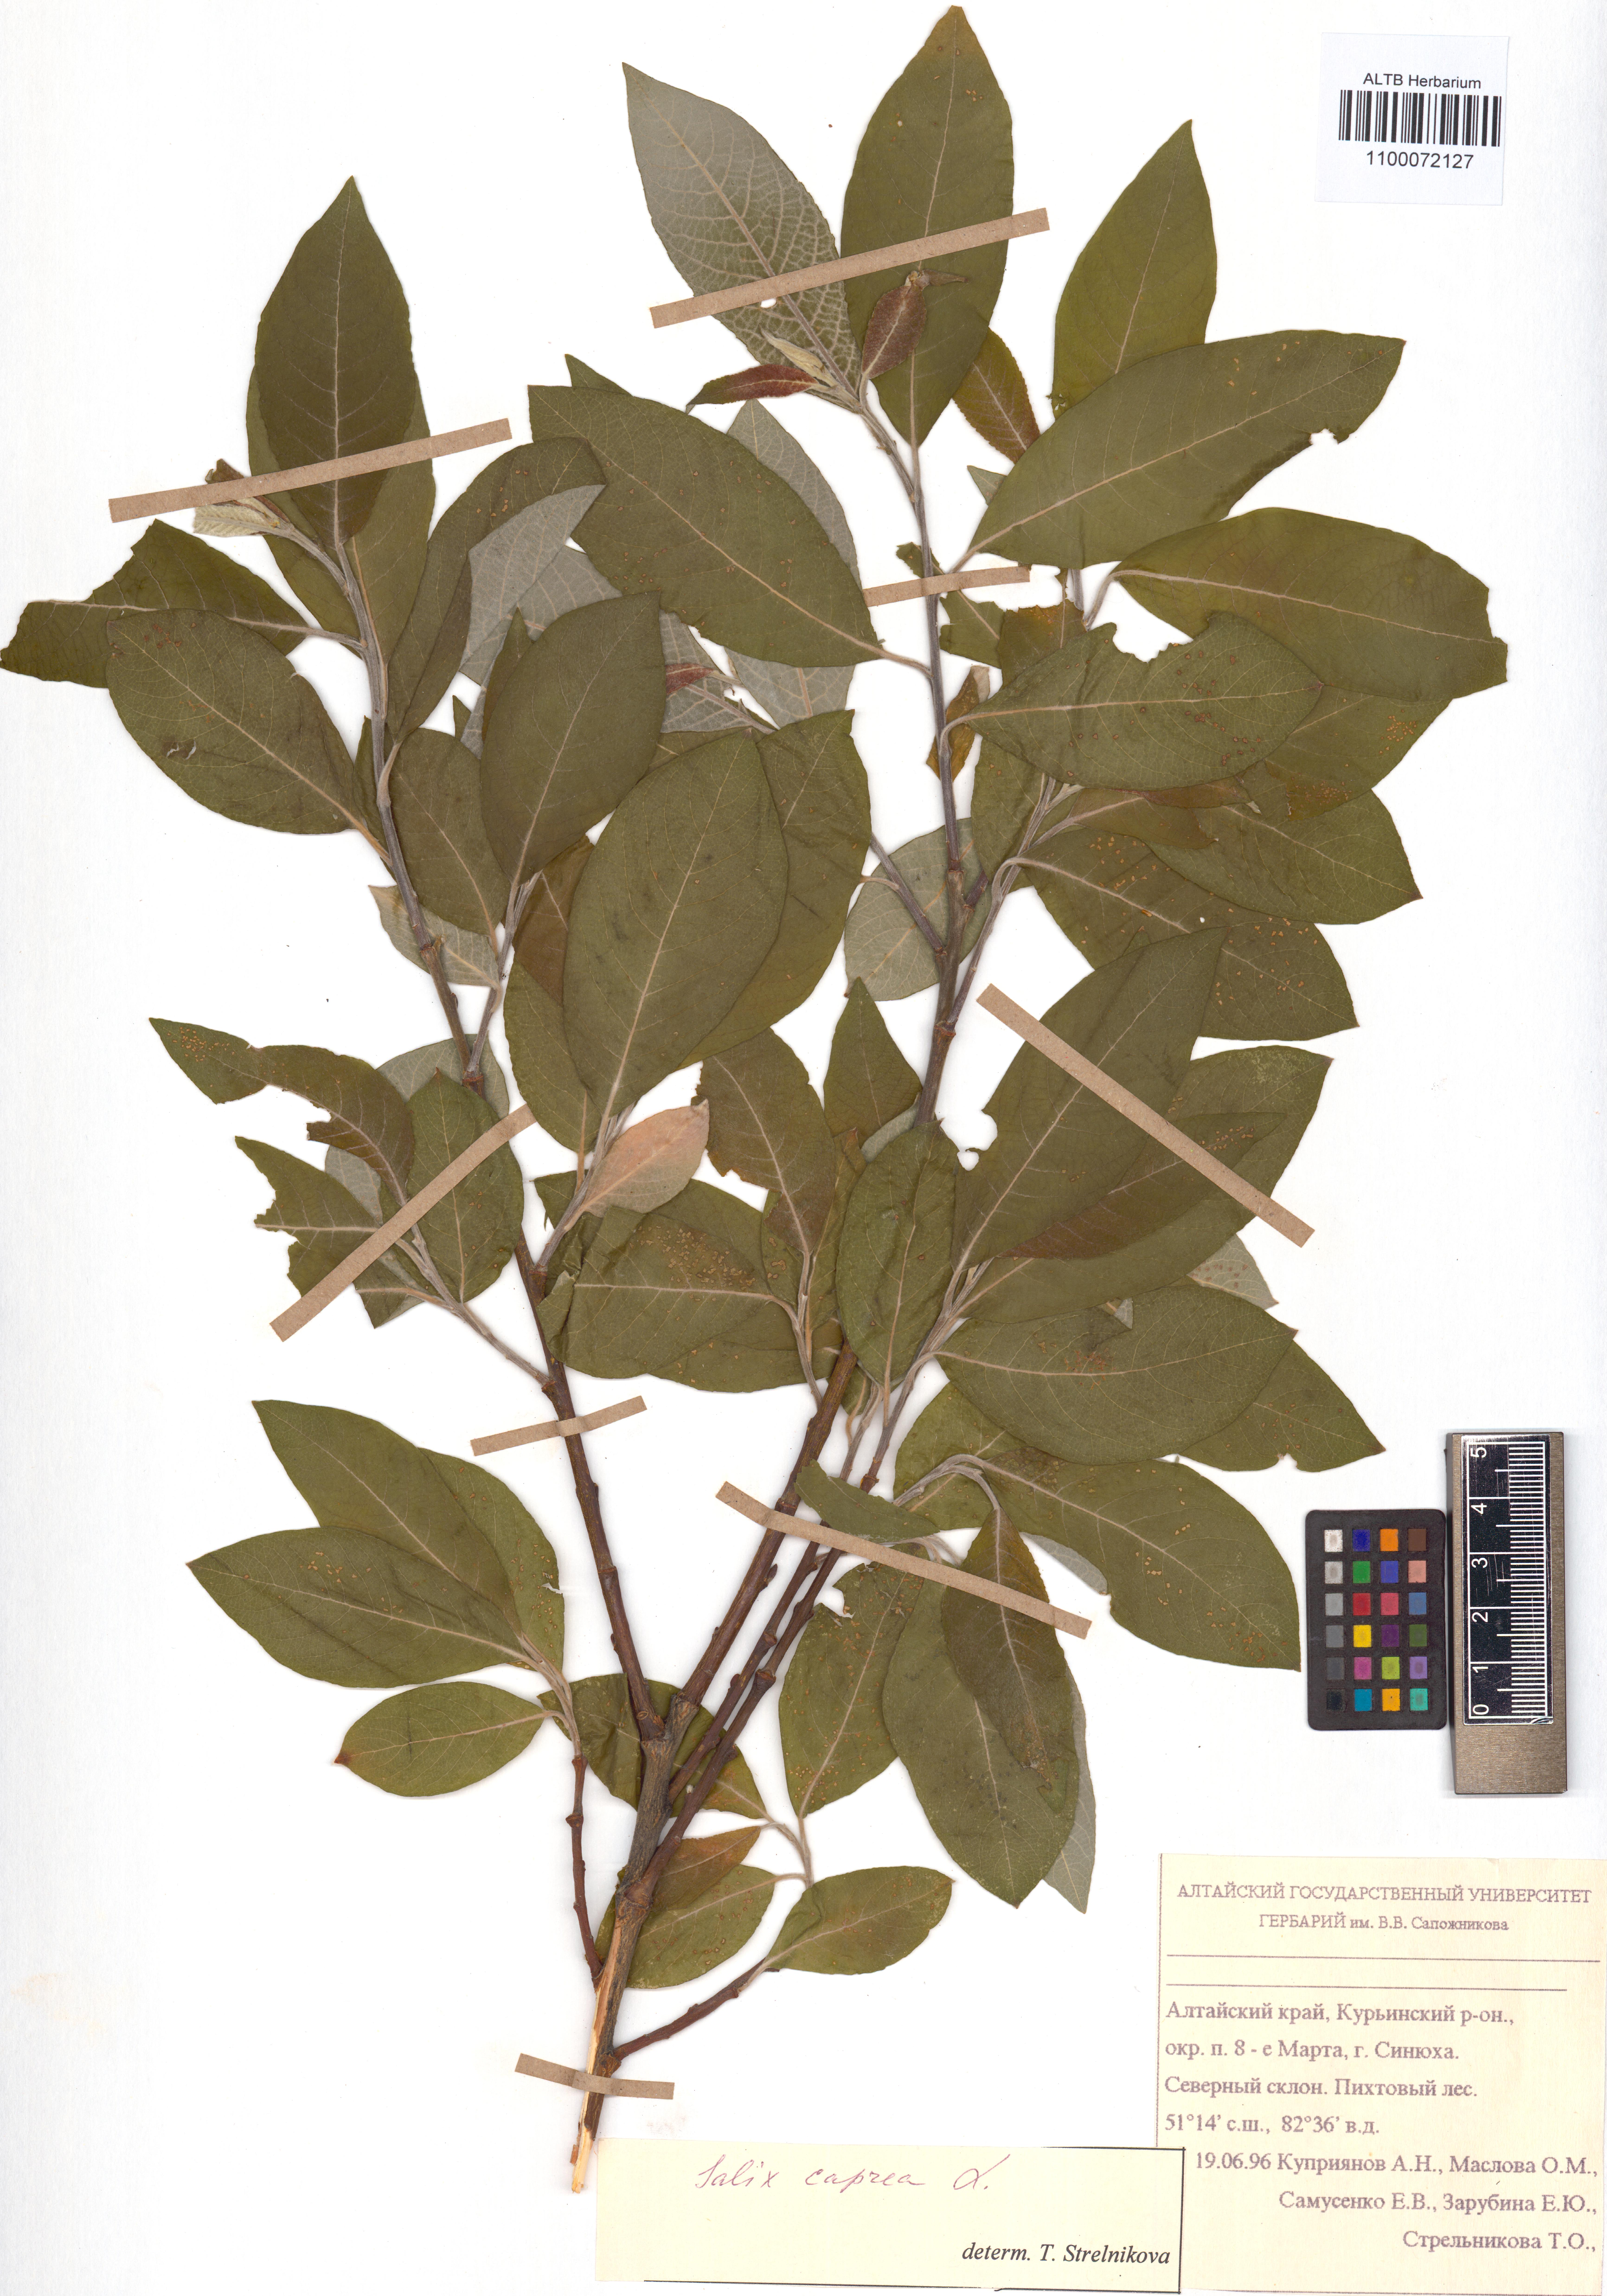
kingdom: Plantae
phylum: Tracheophyta
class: Magnoliopsida
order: Malpighiales
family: Salicaceae
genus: Salix
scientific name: Salix caprea
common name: Goat willow
